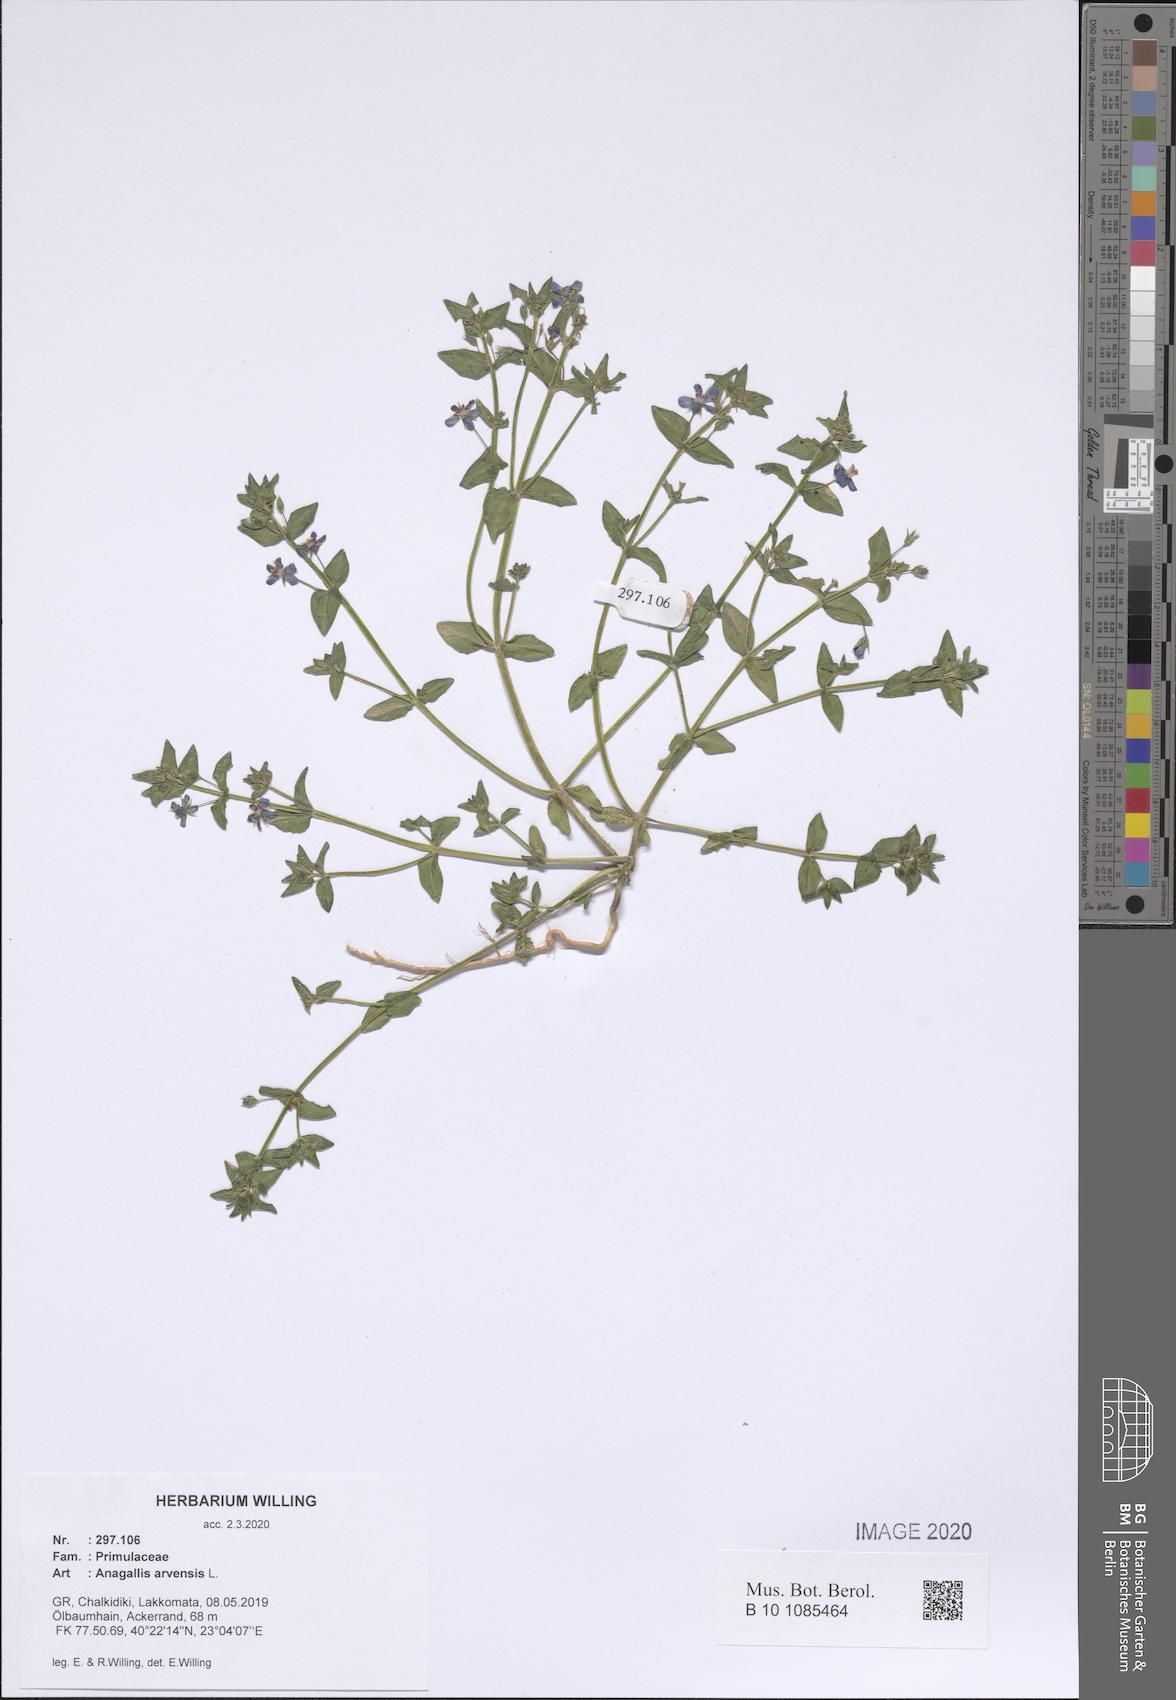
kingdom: Plantae
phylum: Tracheophyta
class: Magnoliopsida
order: Ericales
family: Primulaceae
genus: Lysimachia
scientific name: Lysimachia arvensis
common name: Scarlet pimpernel
